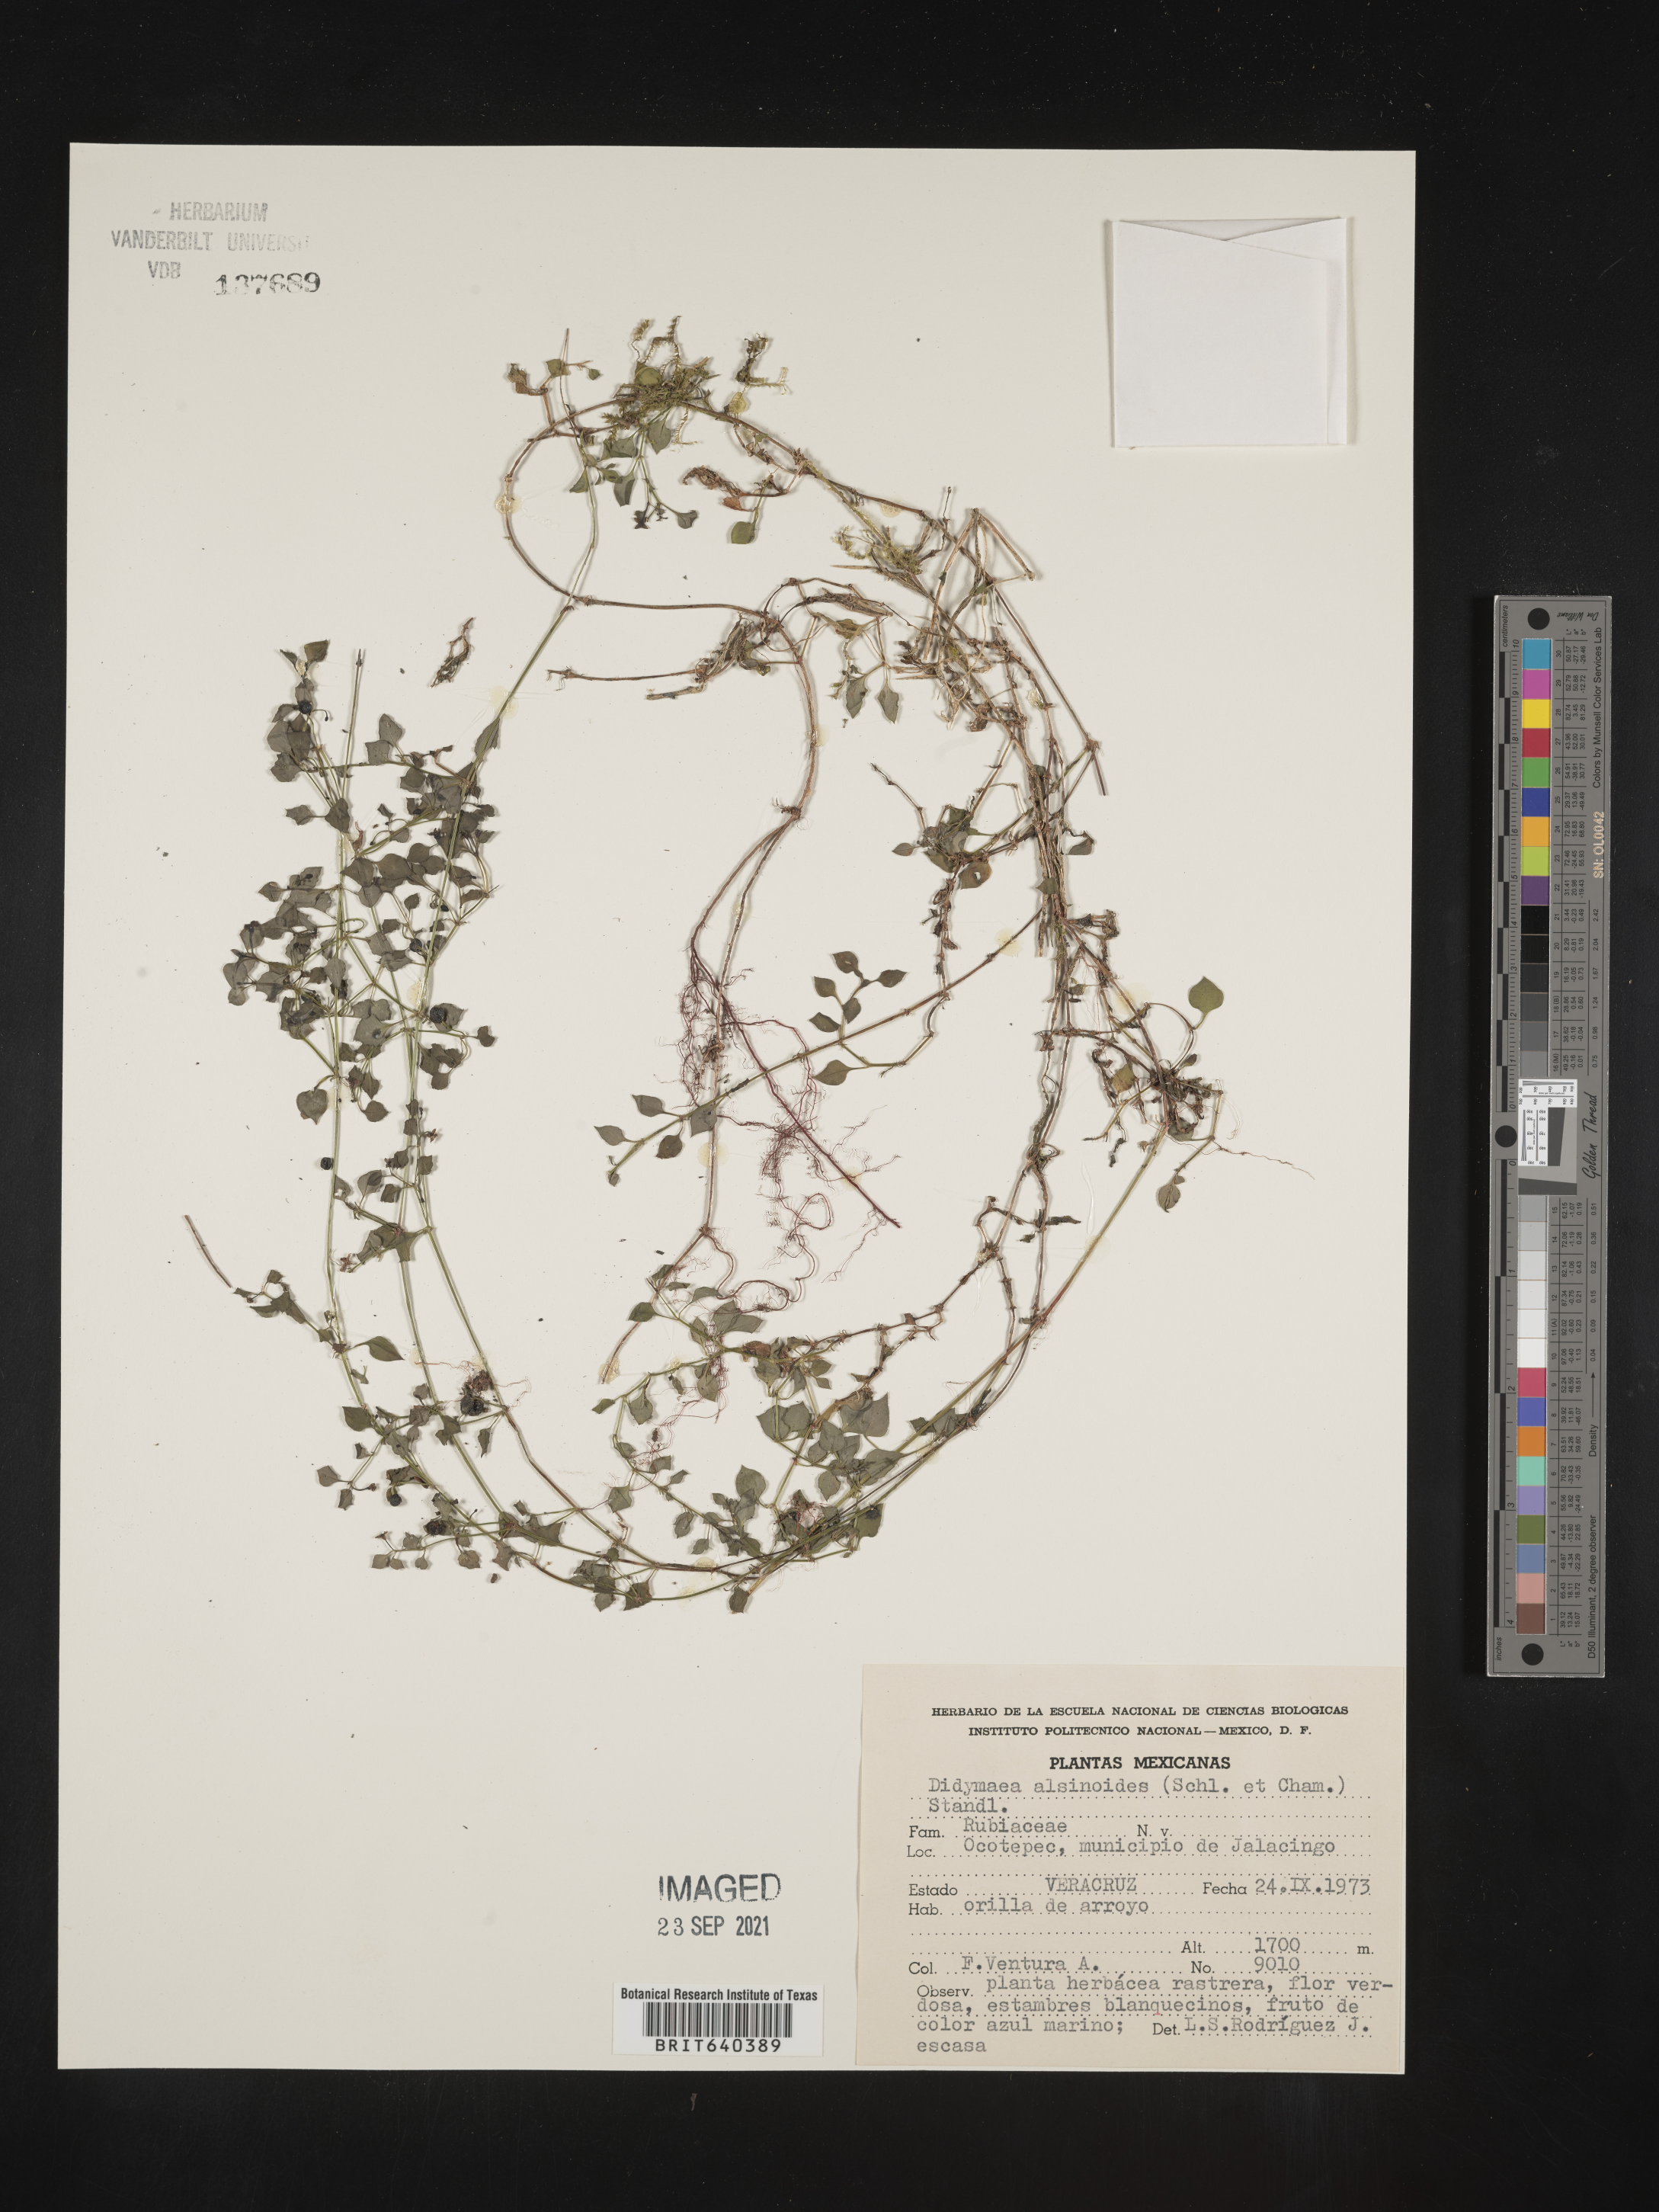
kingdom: Plantae
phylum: Tracheophyta
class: Magnoliopsida
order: Gentianales
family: Rubiaceae
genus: Didymaea
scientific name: Didymaea
